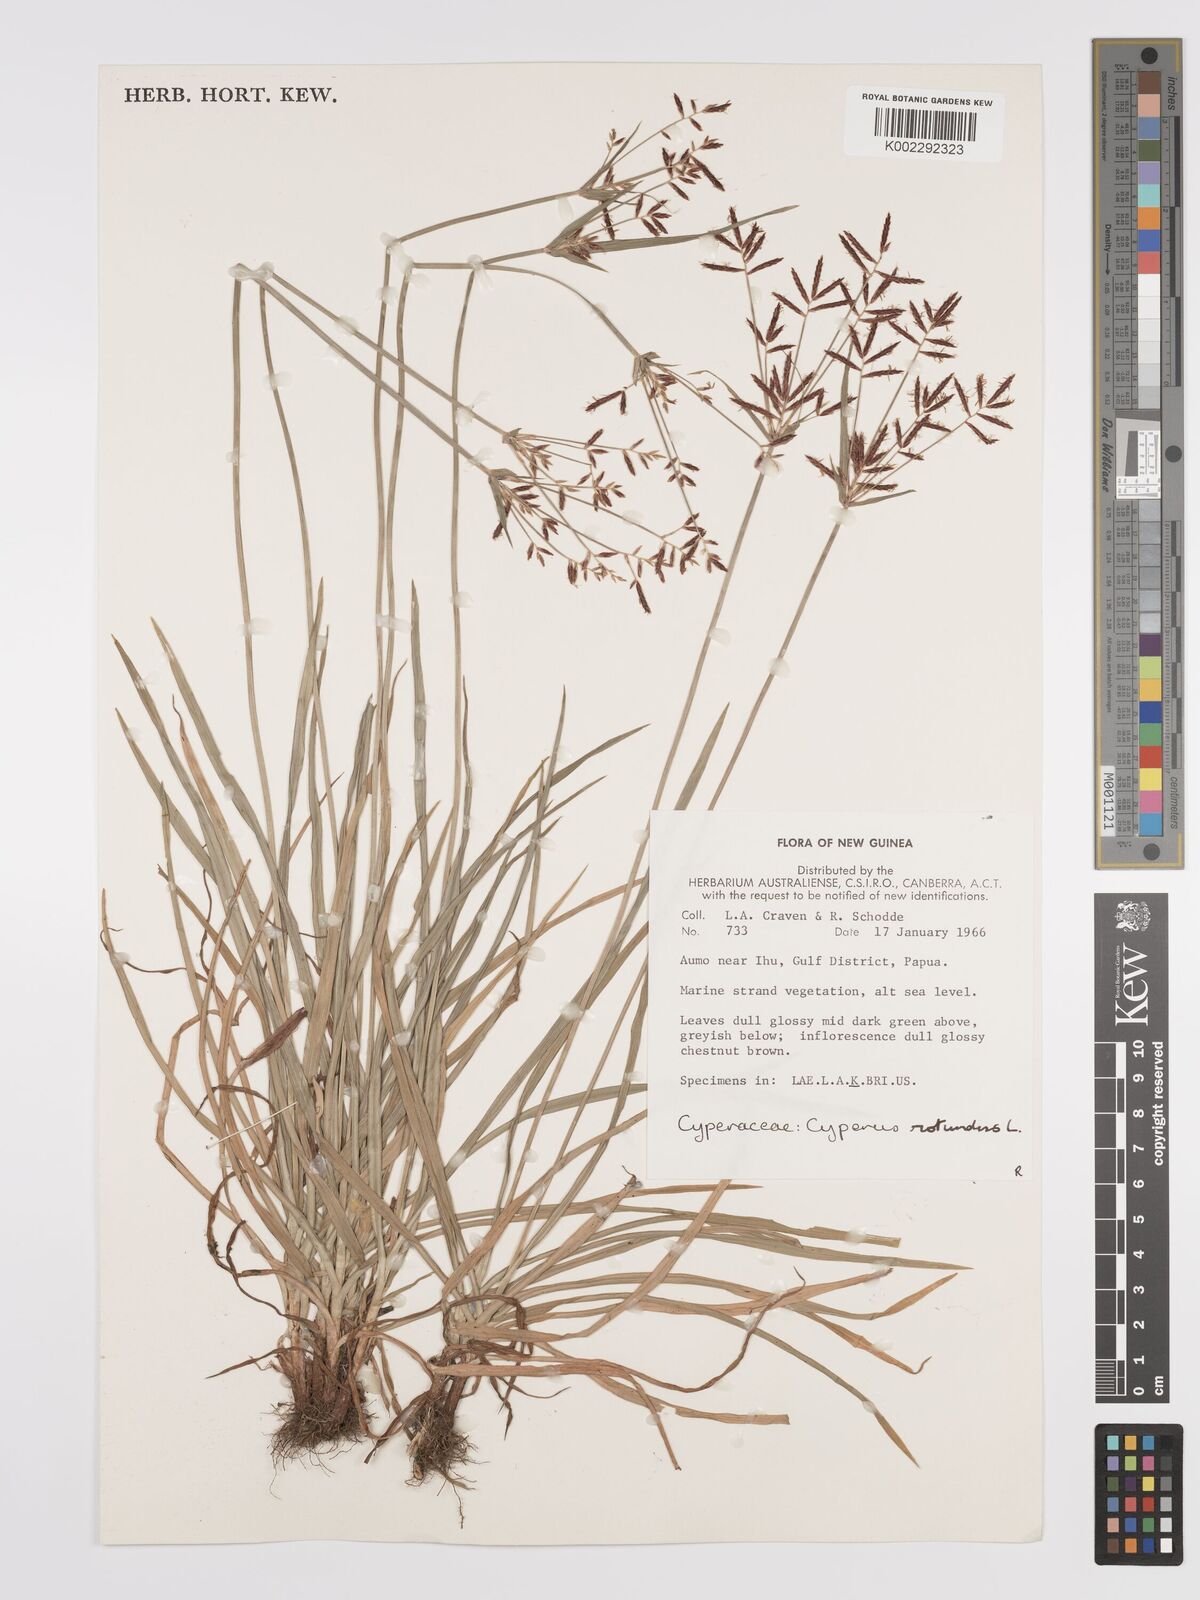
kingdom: Plantae
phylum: Tracheophyta
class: Liliopsida
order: Poales
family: Cyperaceae
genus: Cyperus
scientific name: Cyperus rotundus
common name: Nutgrass
